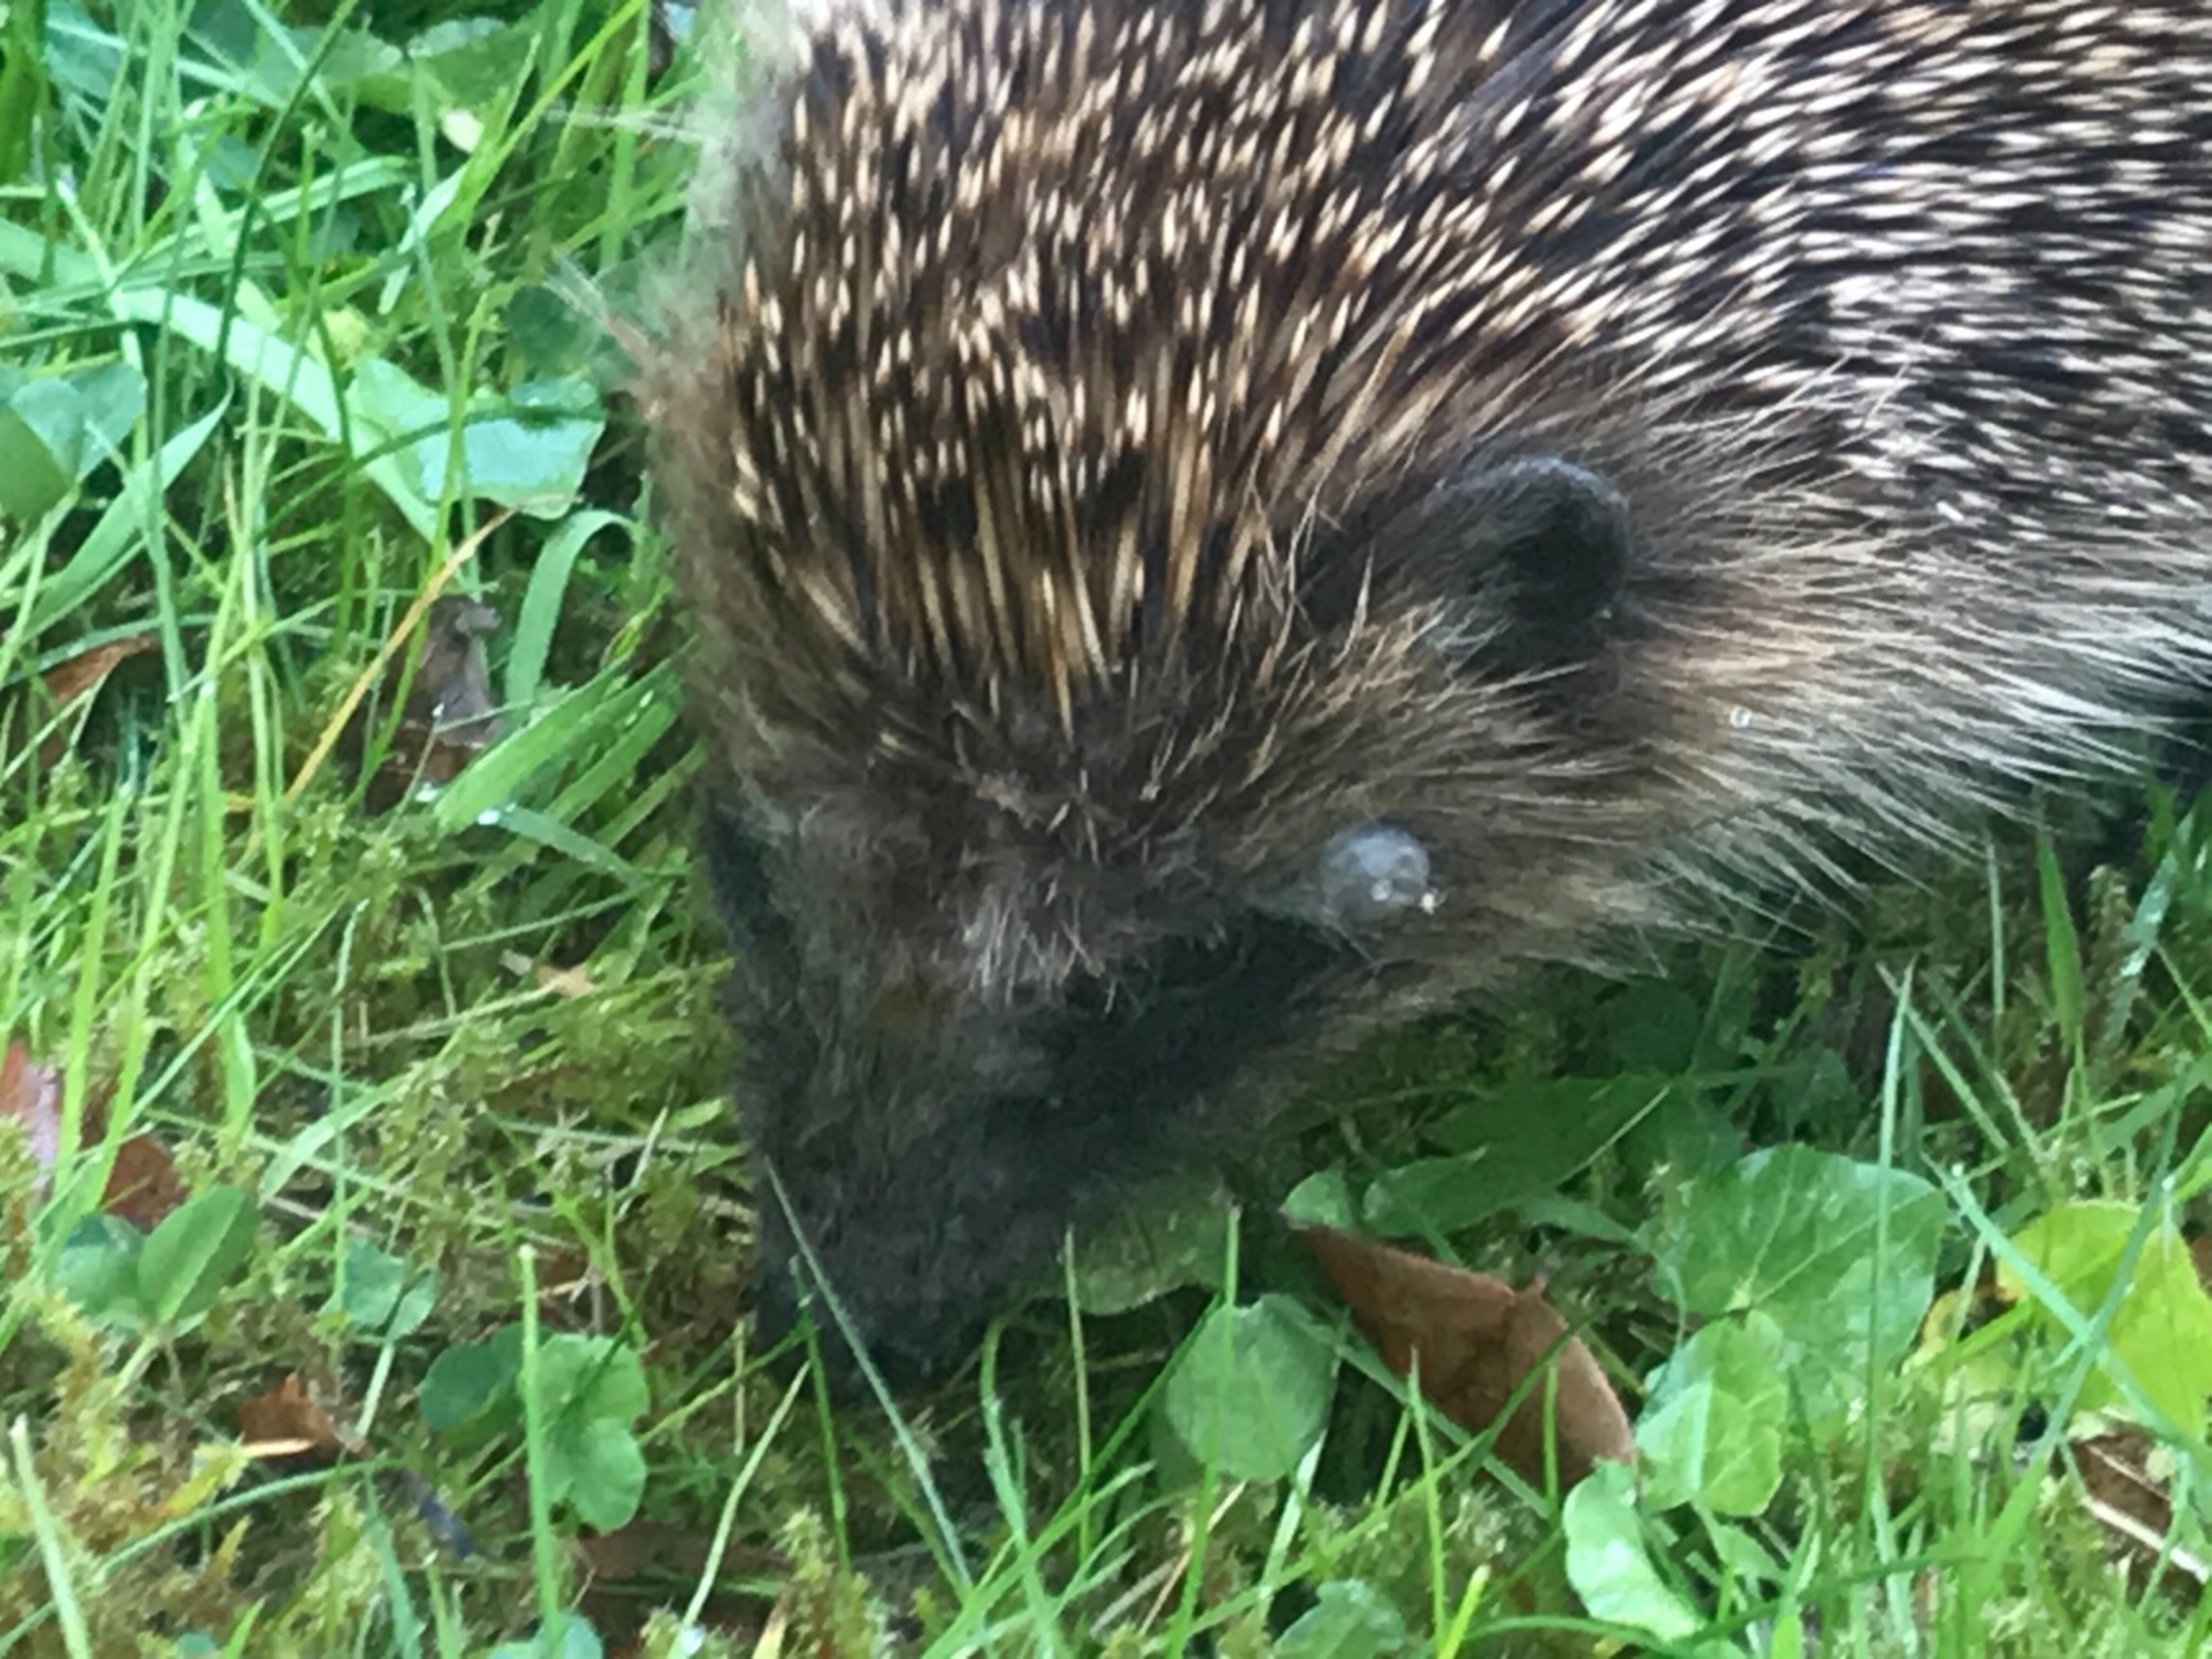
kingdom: Animalia
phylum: Chordata
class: Mammalia
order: Erinaceomorpha
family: Erinaceidae
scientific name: Erinaceidae
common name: Pindsvin
